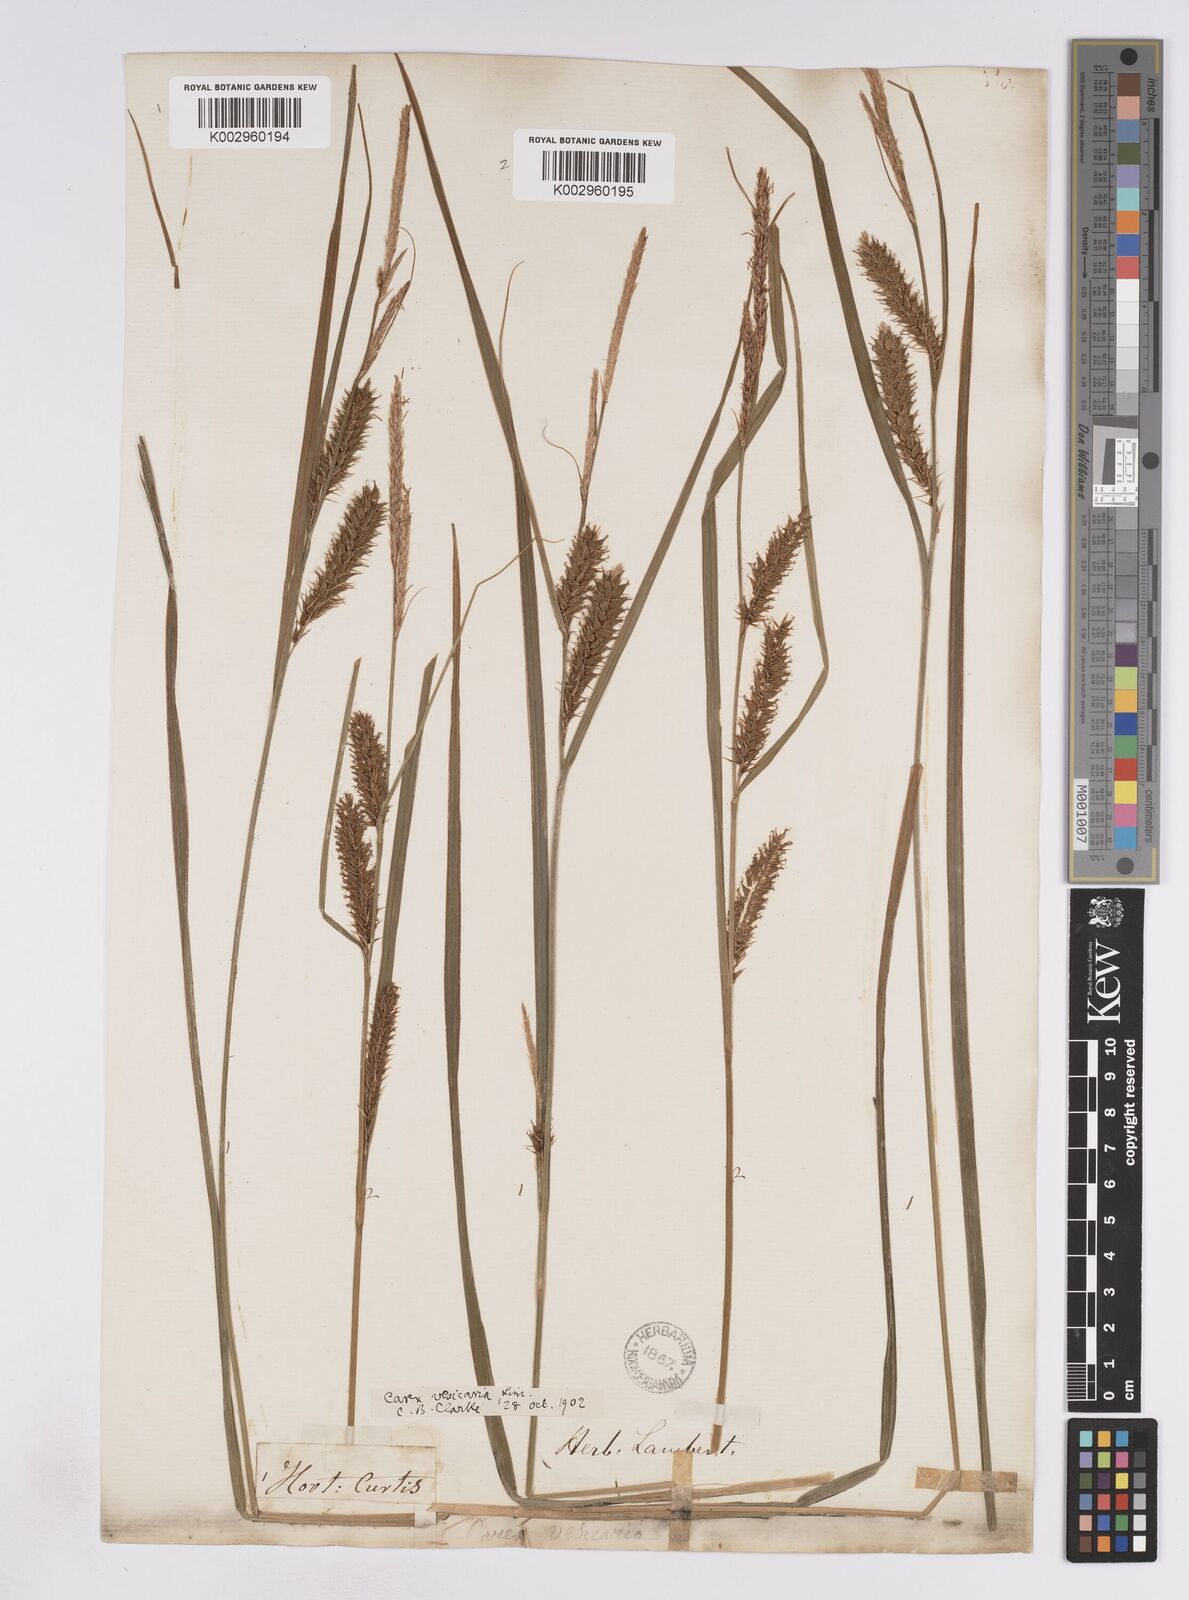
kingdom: Plantae
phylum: Tracheophyta
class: Liliopsida
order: Poales
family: Cyperaceae
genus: Carex
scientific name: Carex vesicaria
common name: Bladder-sedge
